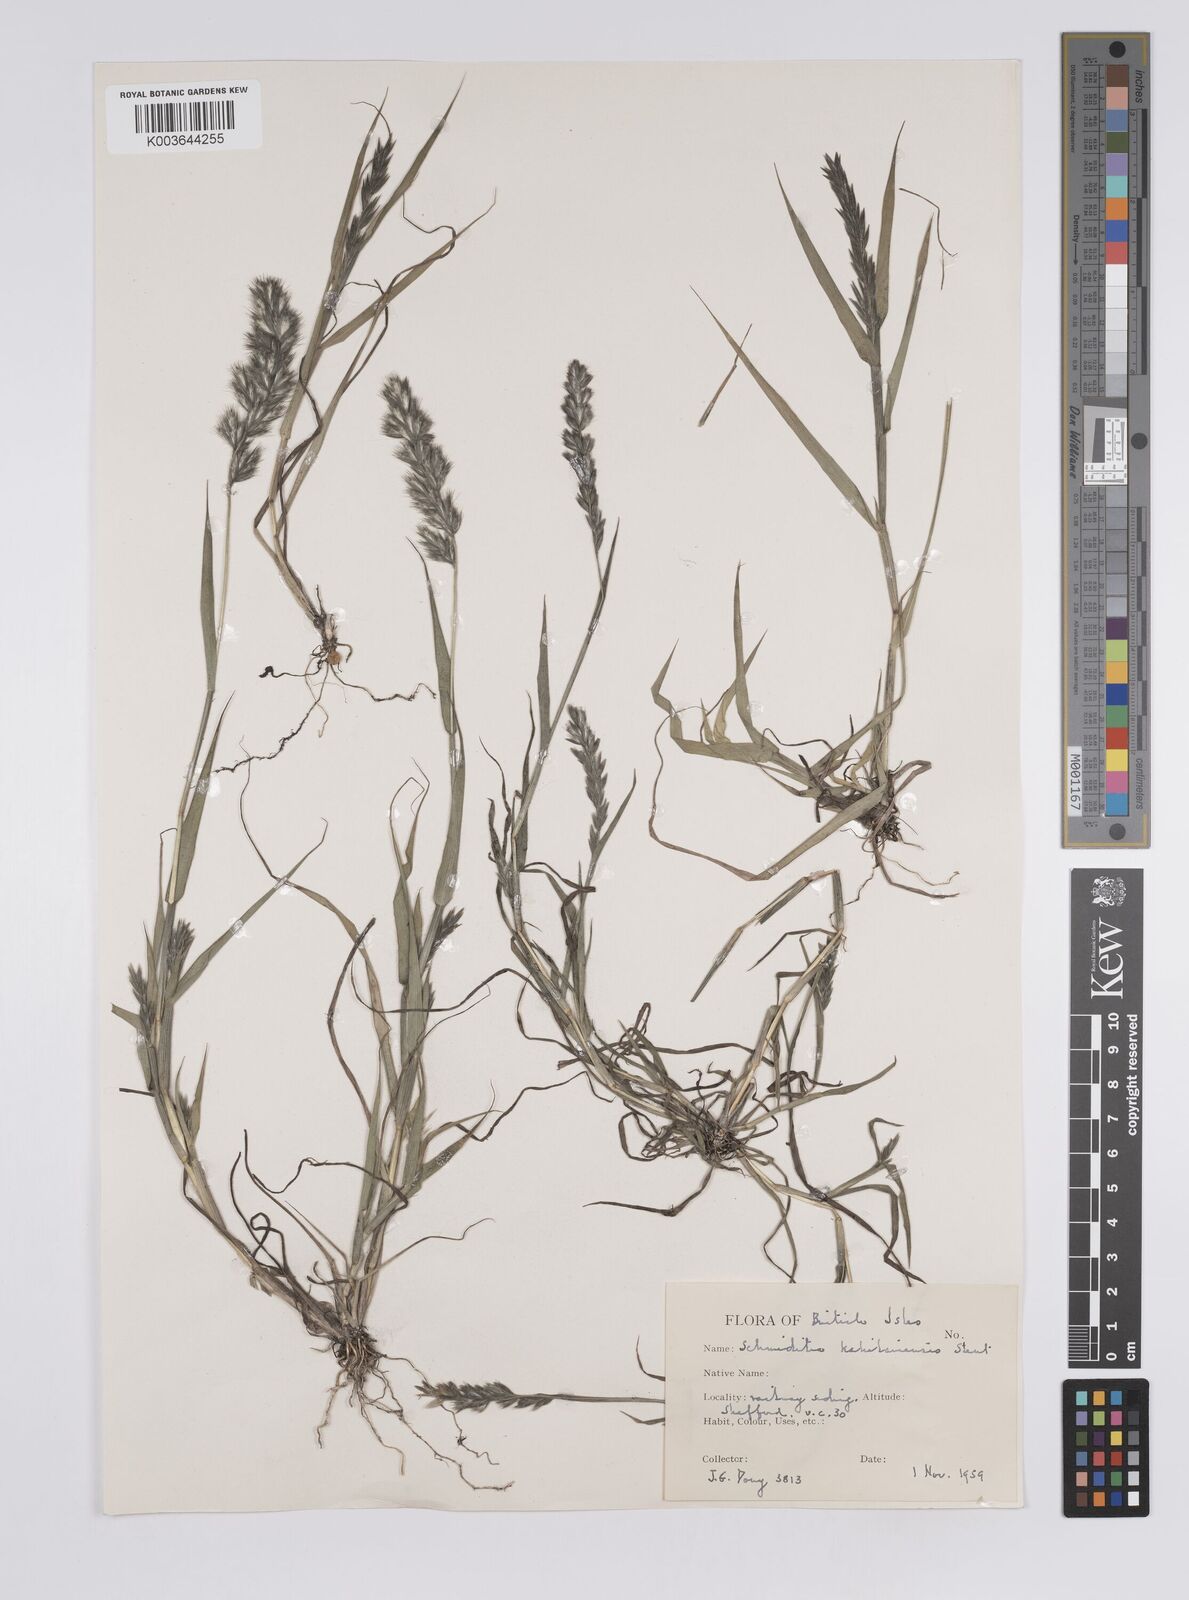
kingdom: Plantae
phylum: Tracheophyta
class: Liliopsida
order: Poales
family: Poaceae
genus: Schmidtia
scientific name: Schmidtia kalahariensis
